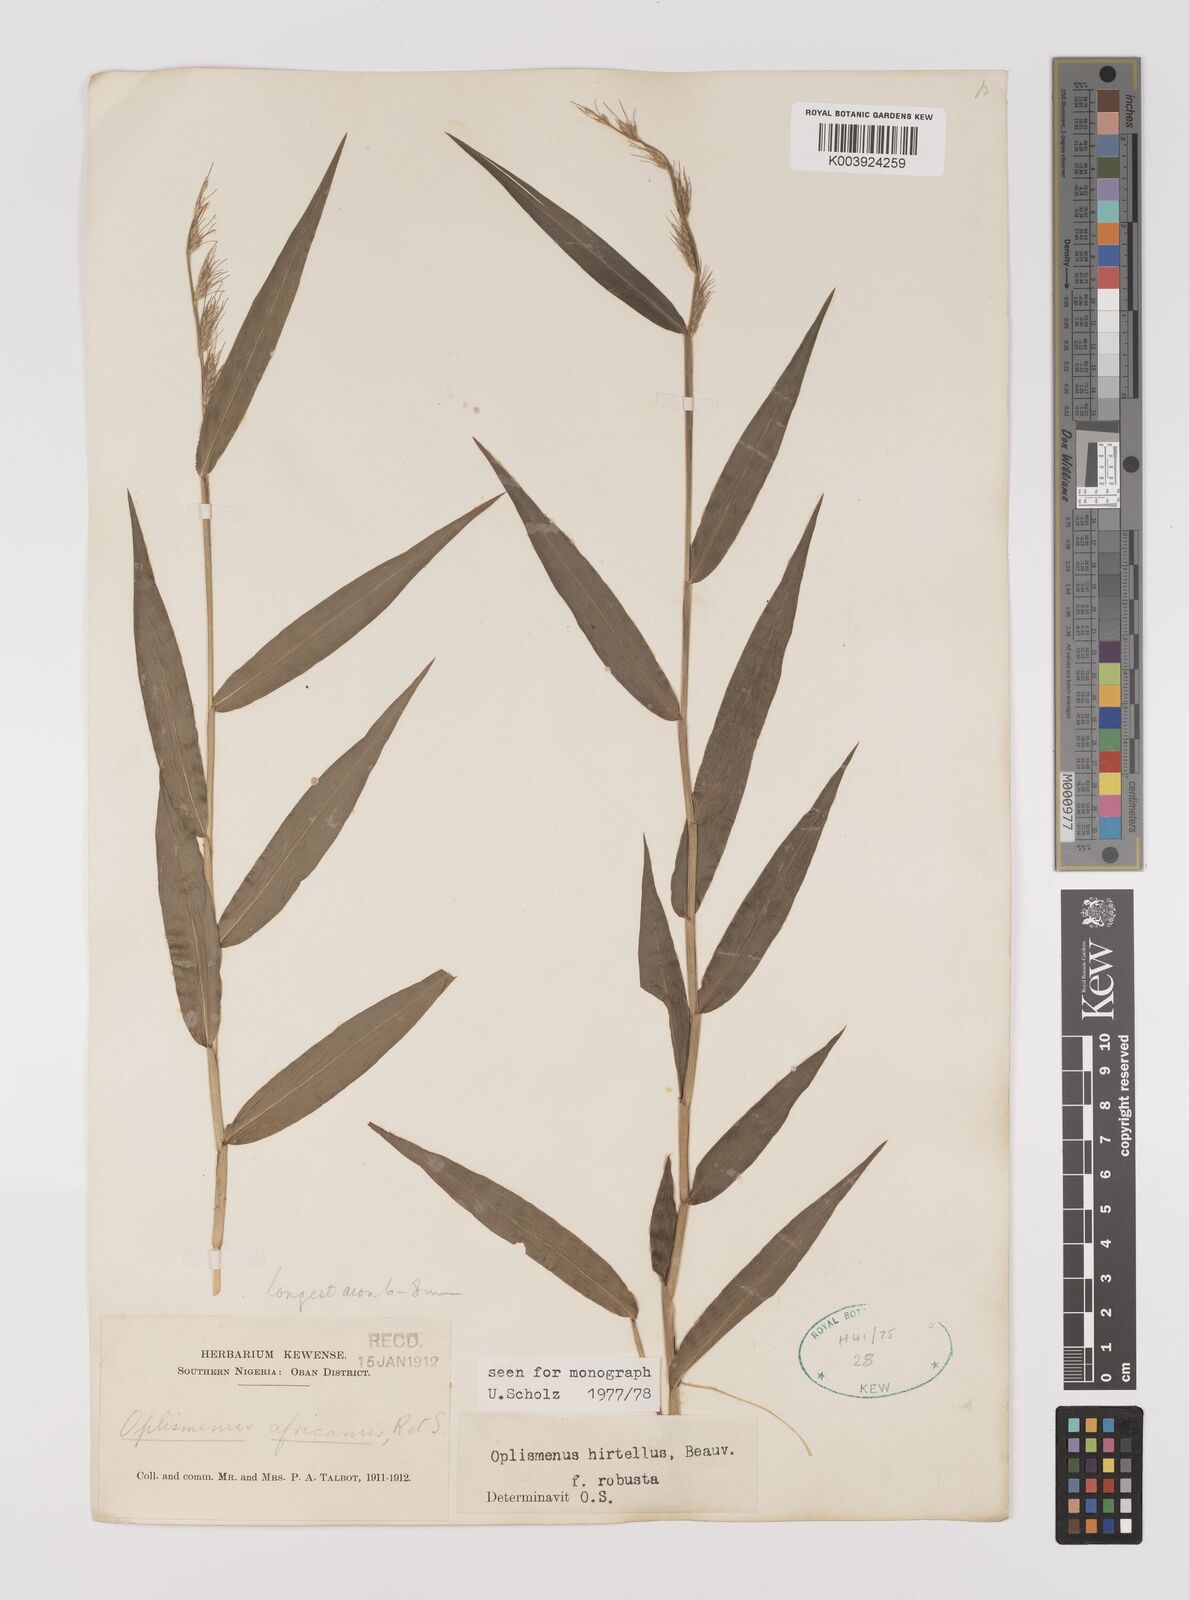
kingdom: Plantae
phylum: Tracheophyta
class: Liliopsida
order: Poales
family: Poaceae
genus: Oplismenus
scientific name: Oplismenus hirtellus
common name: Basketgrass
